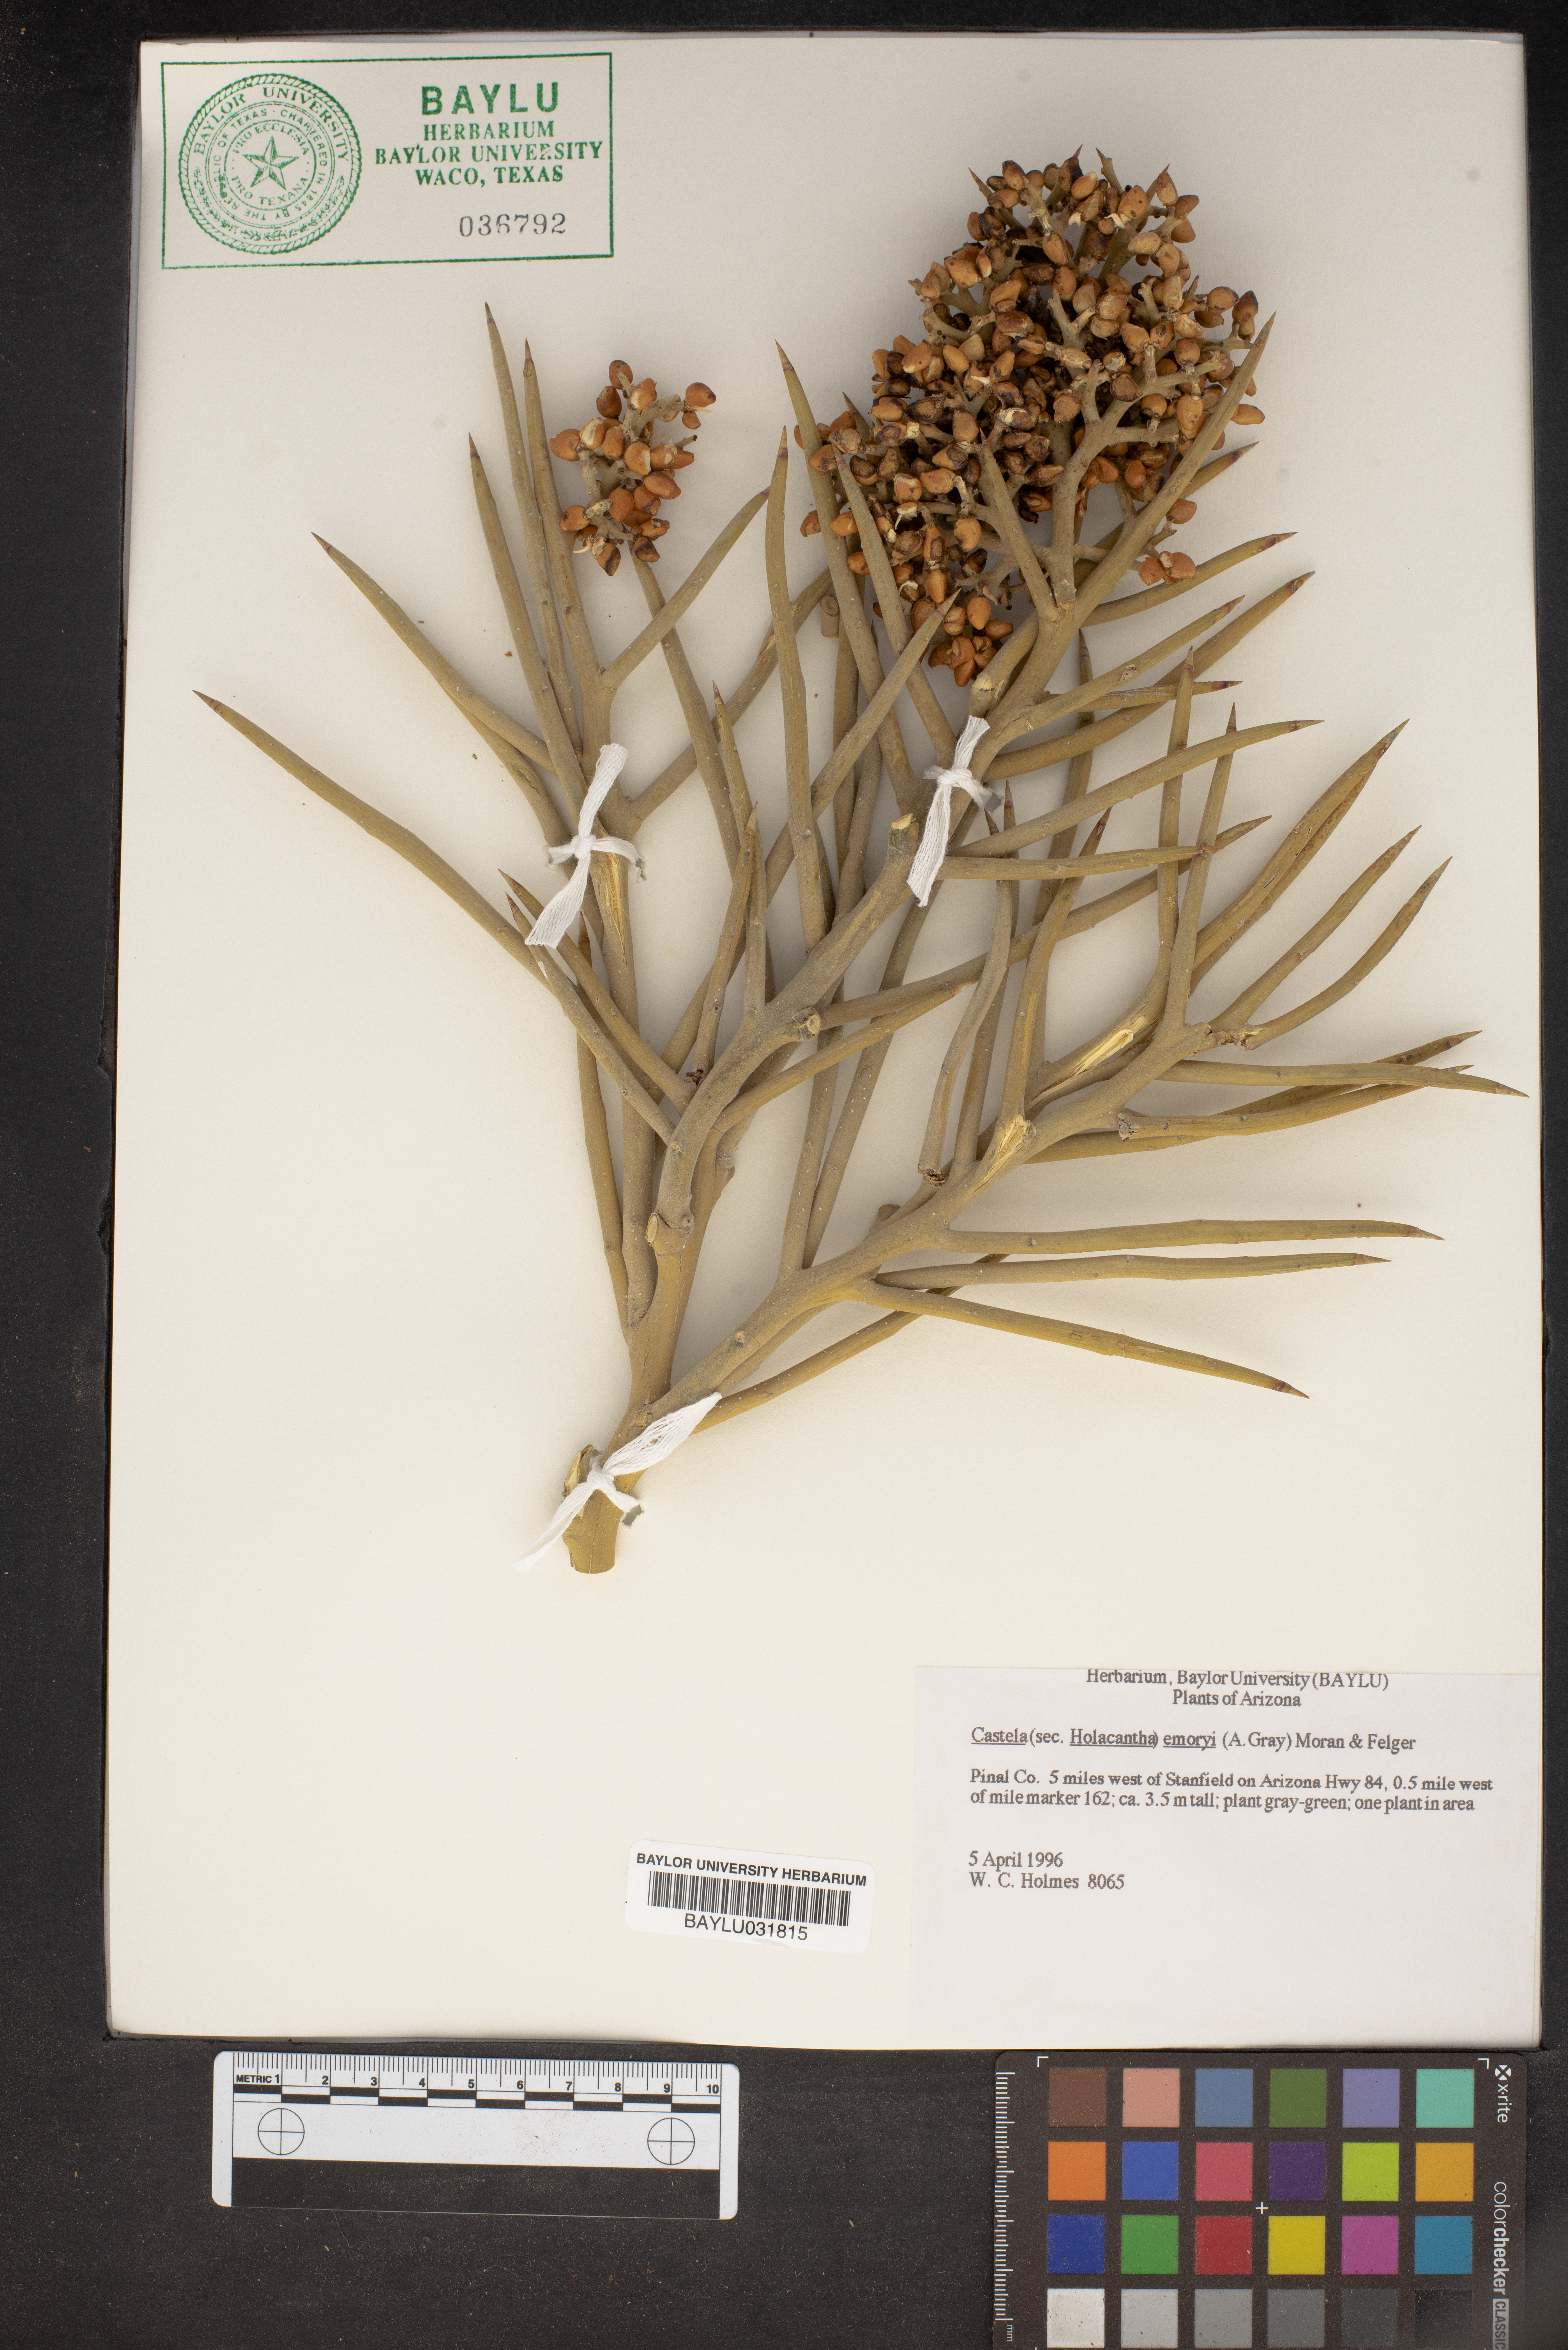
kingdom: Plantae
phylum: Tracheophyta
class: Magnoliopsida
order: Sapindales
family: Simaroubaceae
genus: Holacantha
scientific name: Holacantha emoryi
